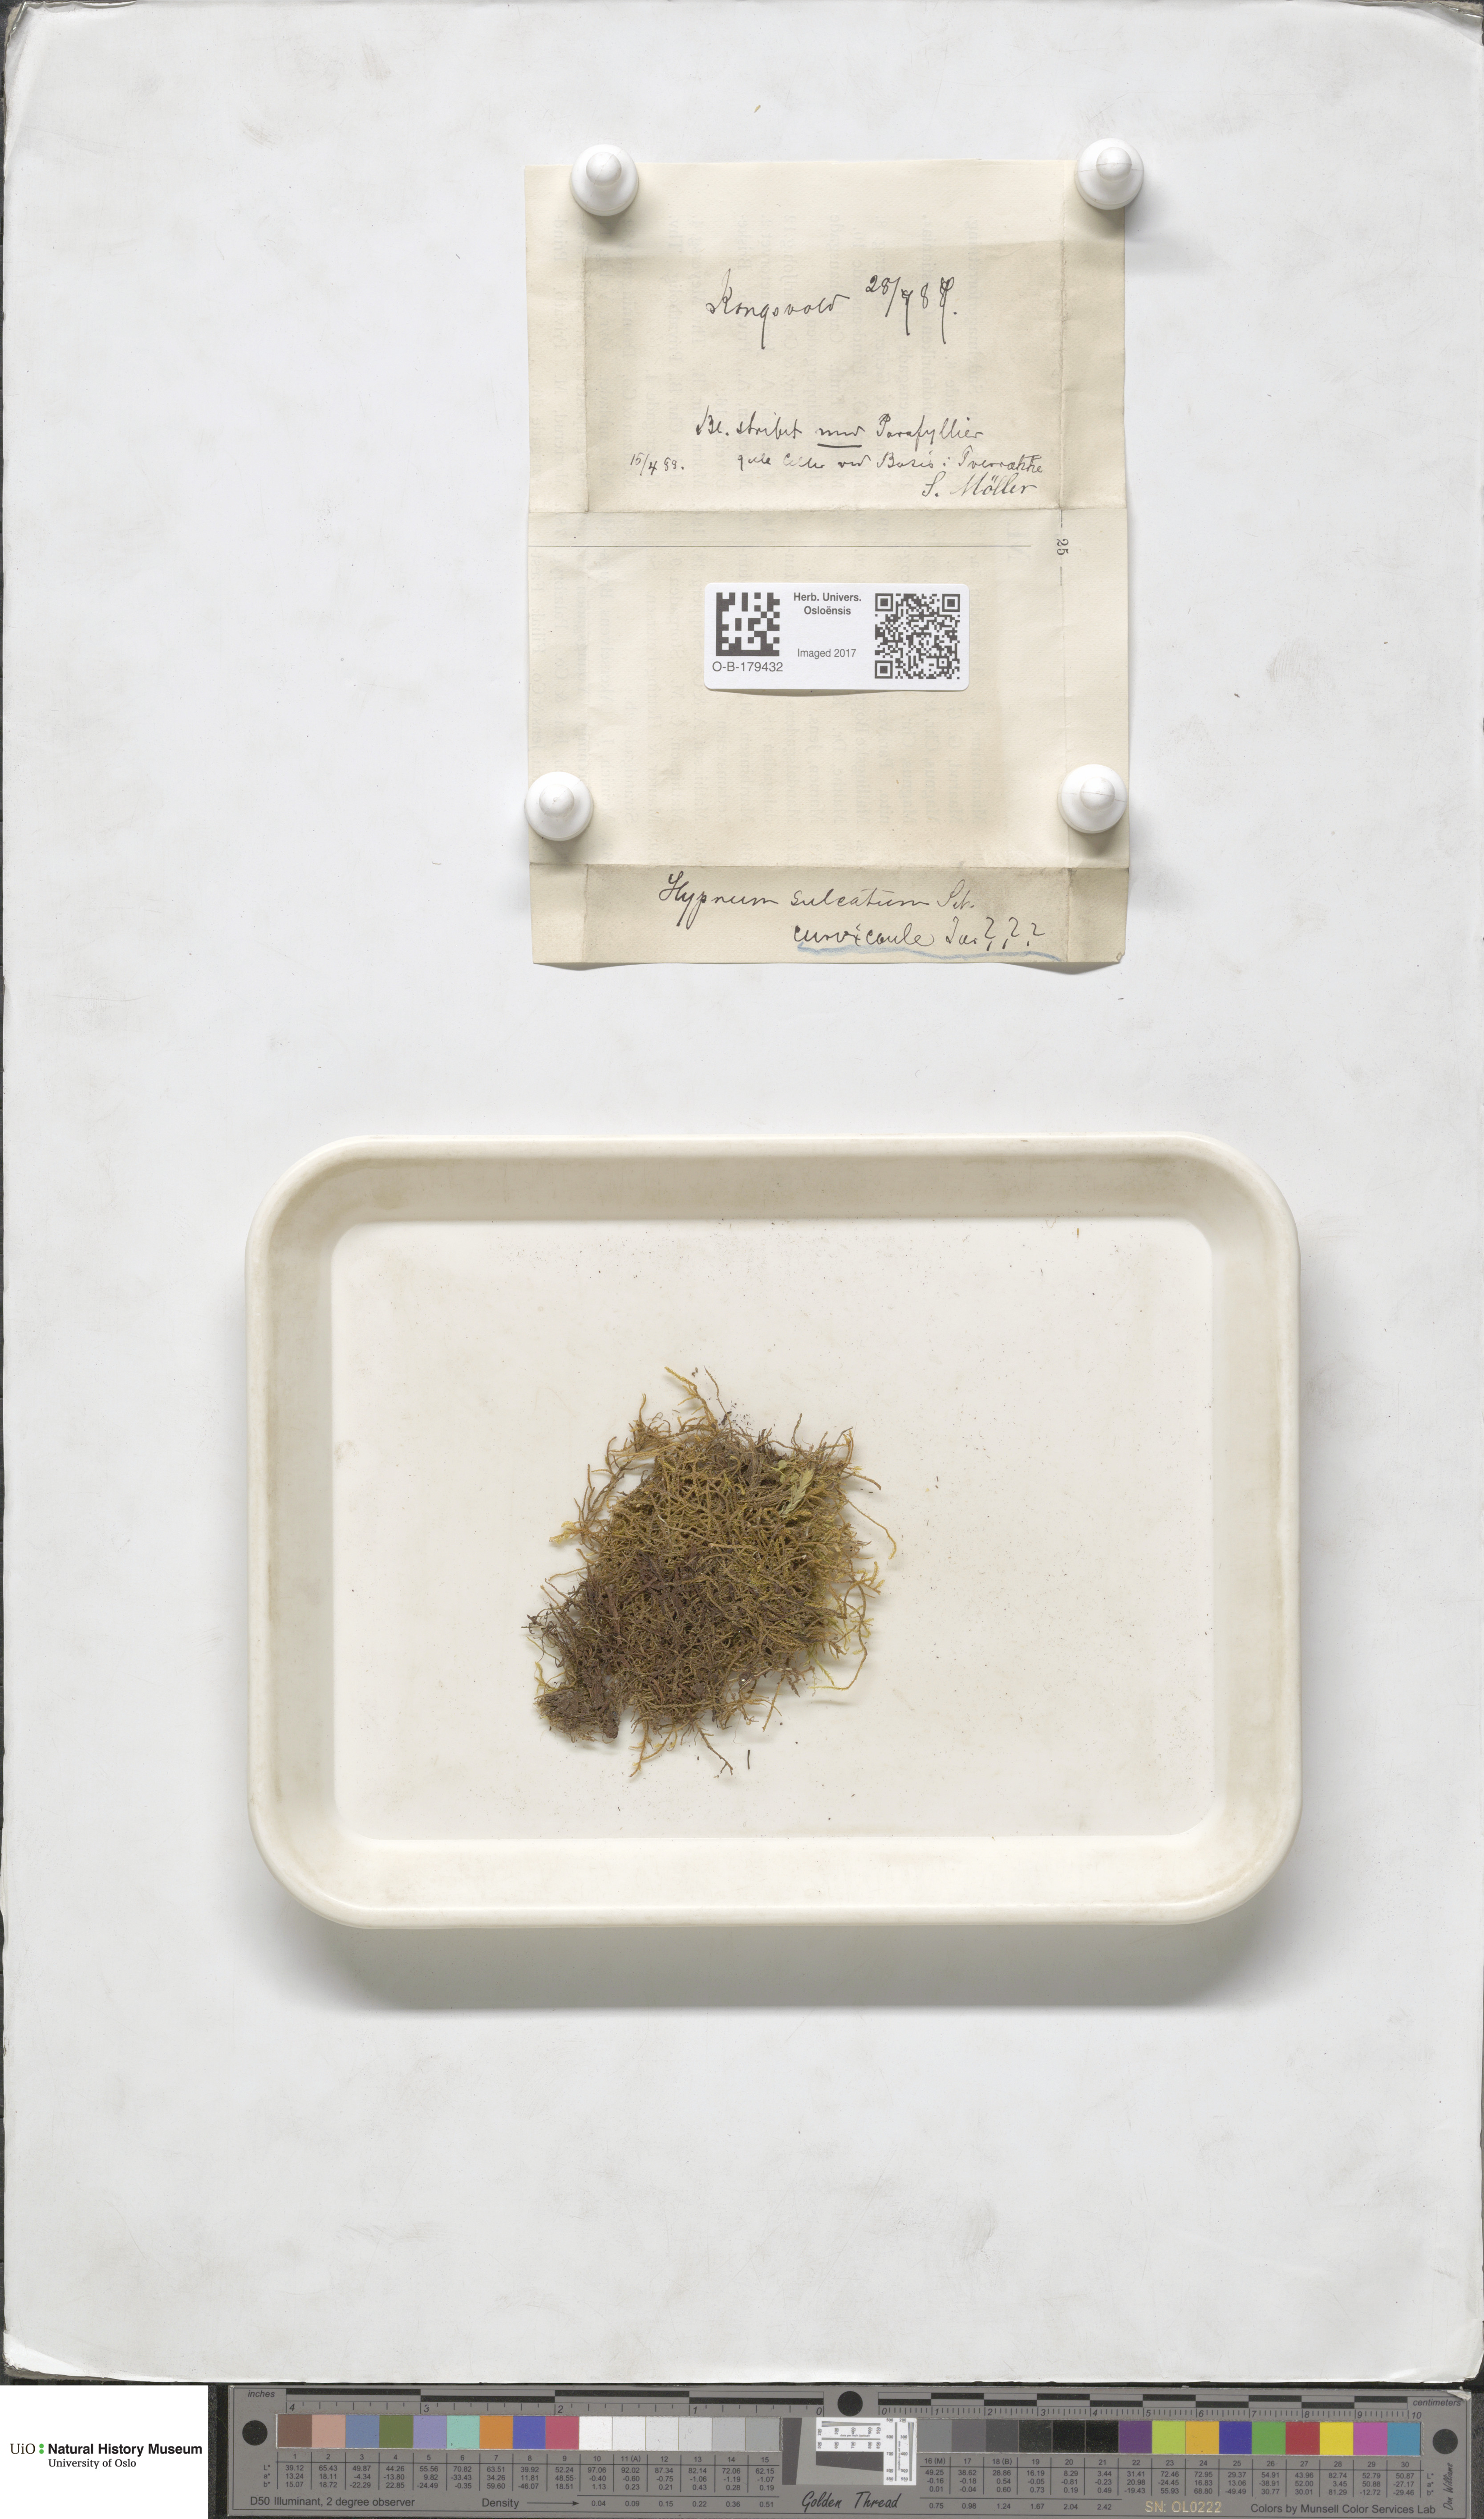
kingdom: Plantae
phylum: Bryophyta
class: Bryopsida
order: Hypnales
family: Amblystegiaceae
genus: Cratoneuron
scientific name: Cratoneuron filicinum
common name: Fern-leaved hook moss
